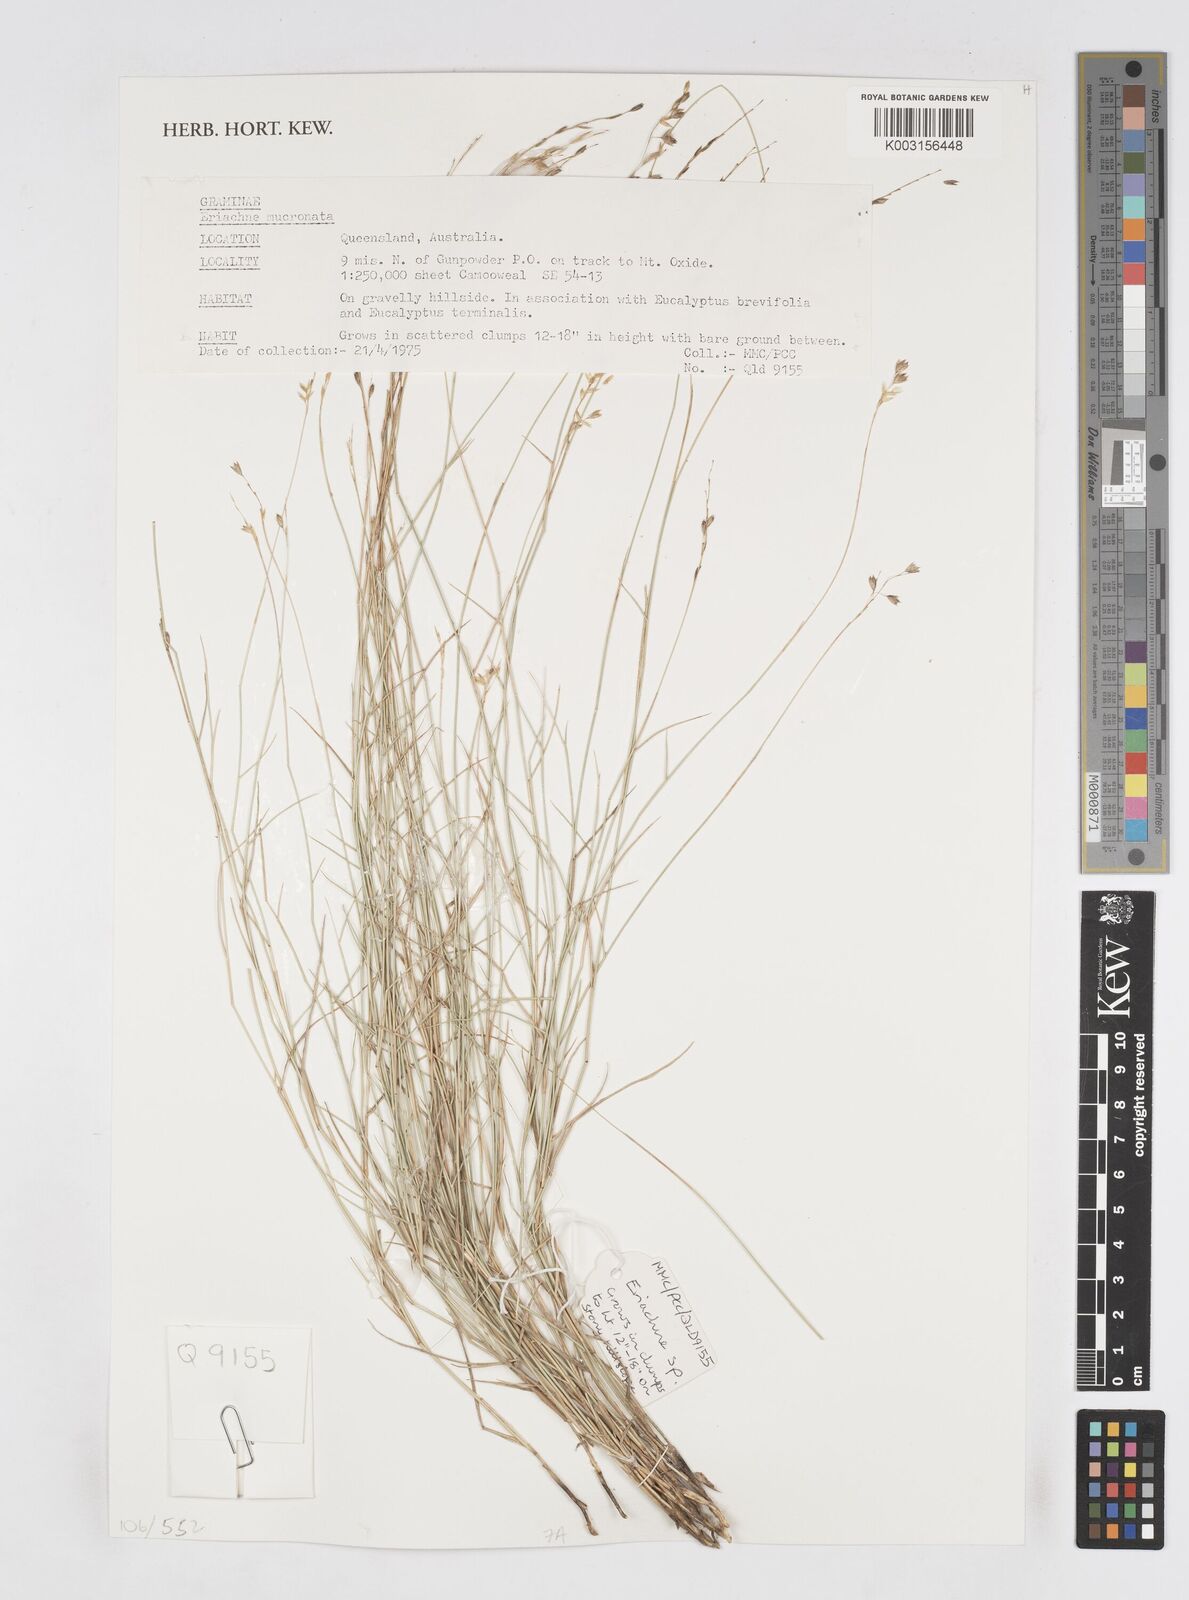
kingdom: Plantae
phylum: Tracheophyta
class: Liliopsida
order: Poales
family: Poaceae
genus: Eriachne
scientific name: Eriachne mucronata
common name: Mountain wanderrie grass
